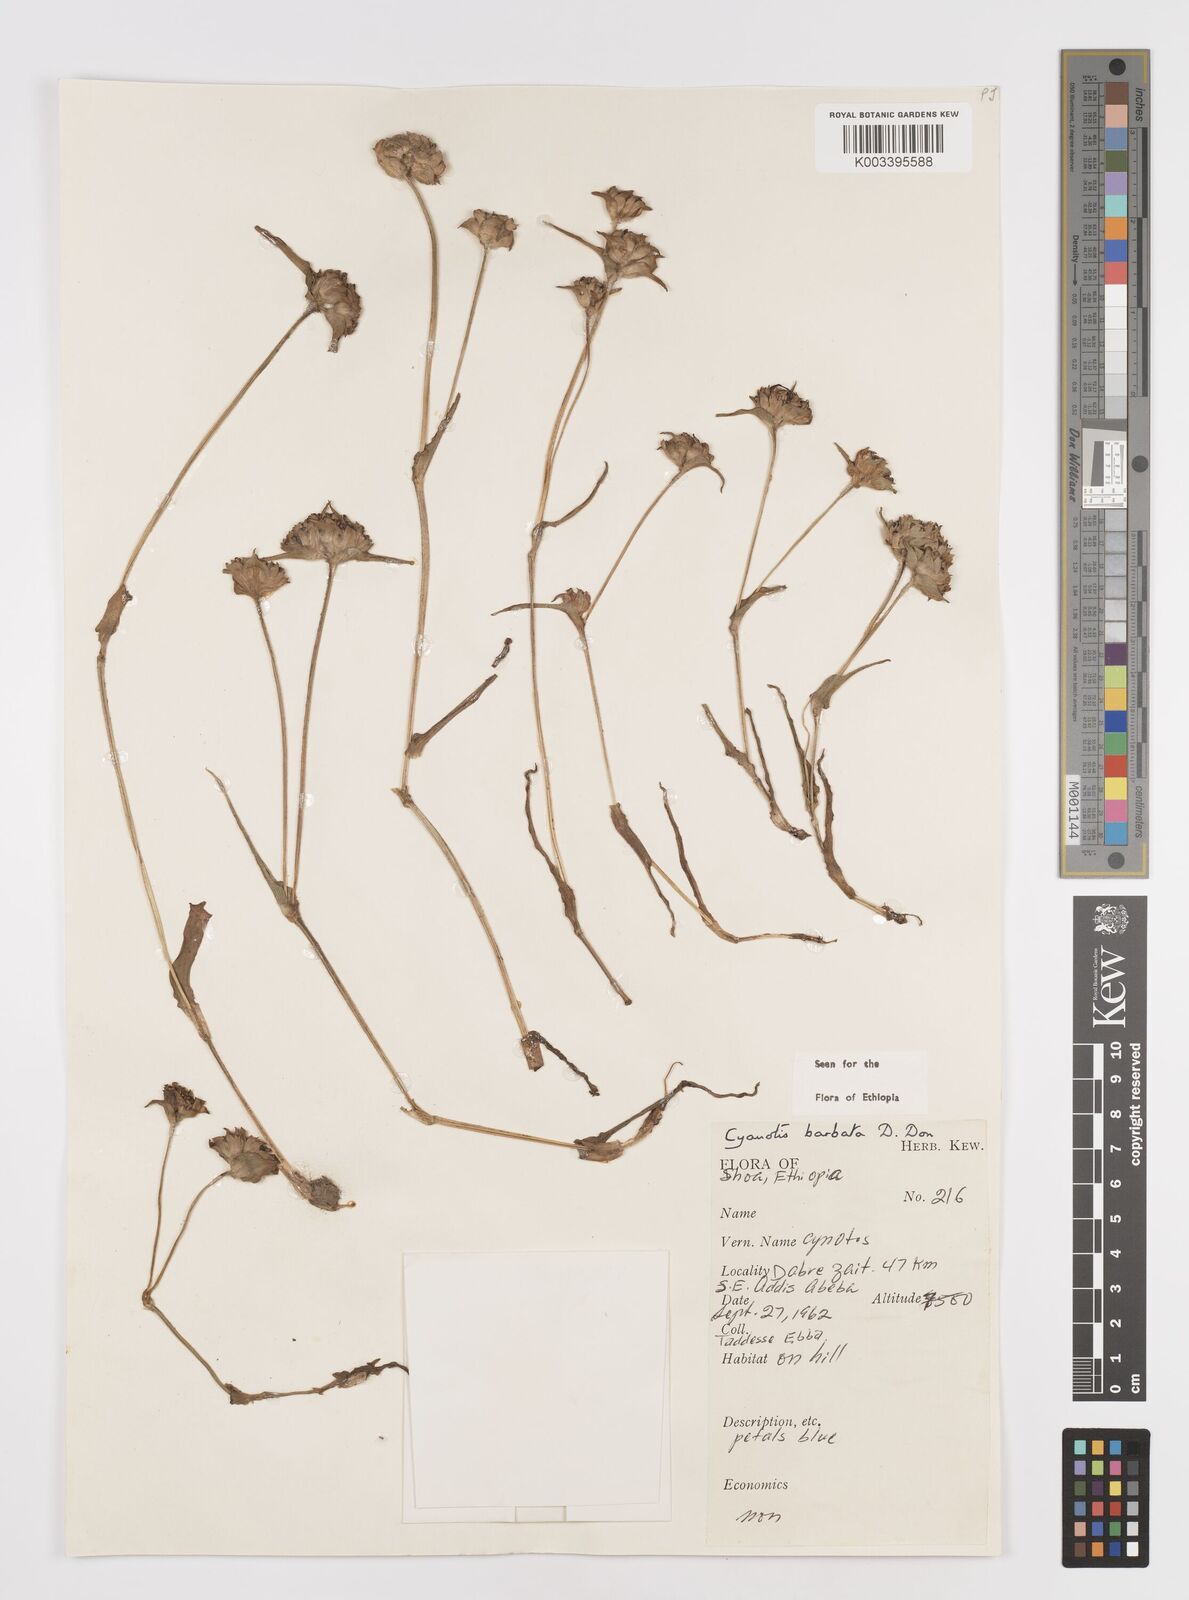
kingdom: Plantae
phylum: Tracheophyta
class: Liliopsida
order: Commelinales
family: Commelinaceae
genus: Cyanotis
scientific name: Cyanotis vaga
